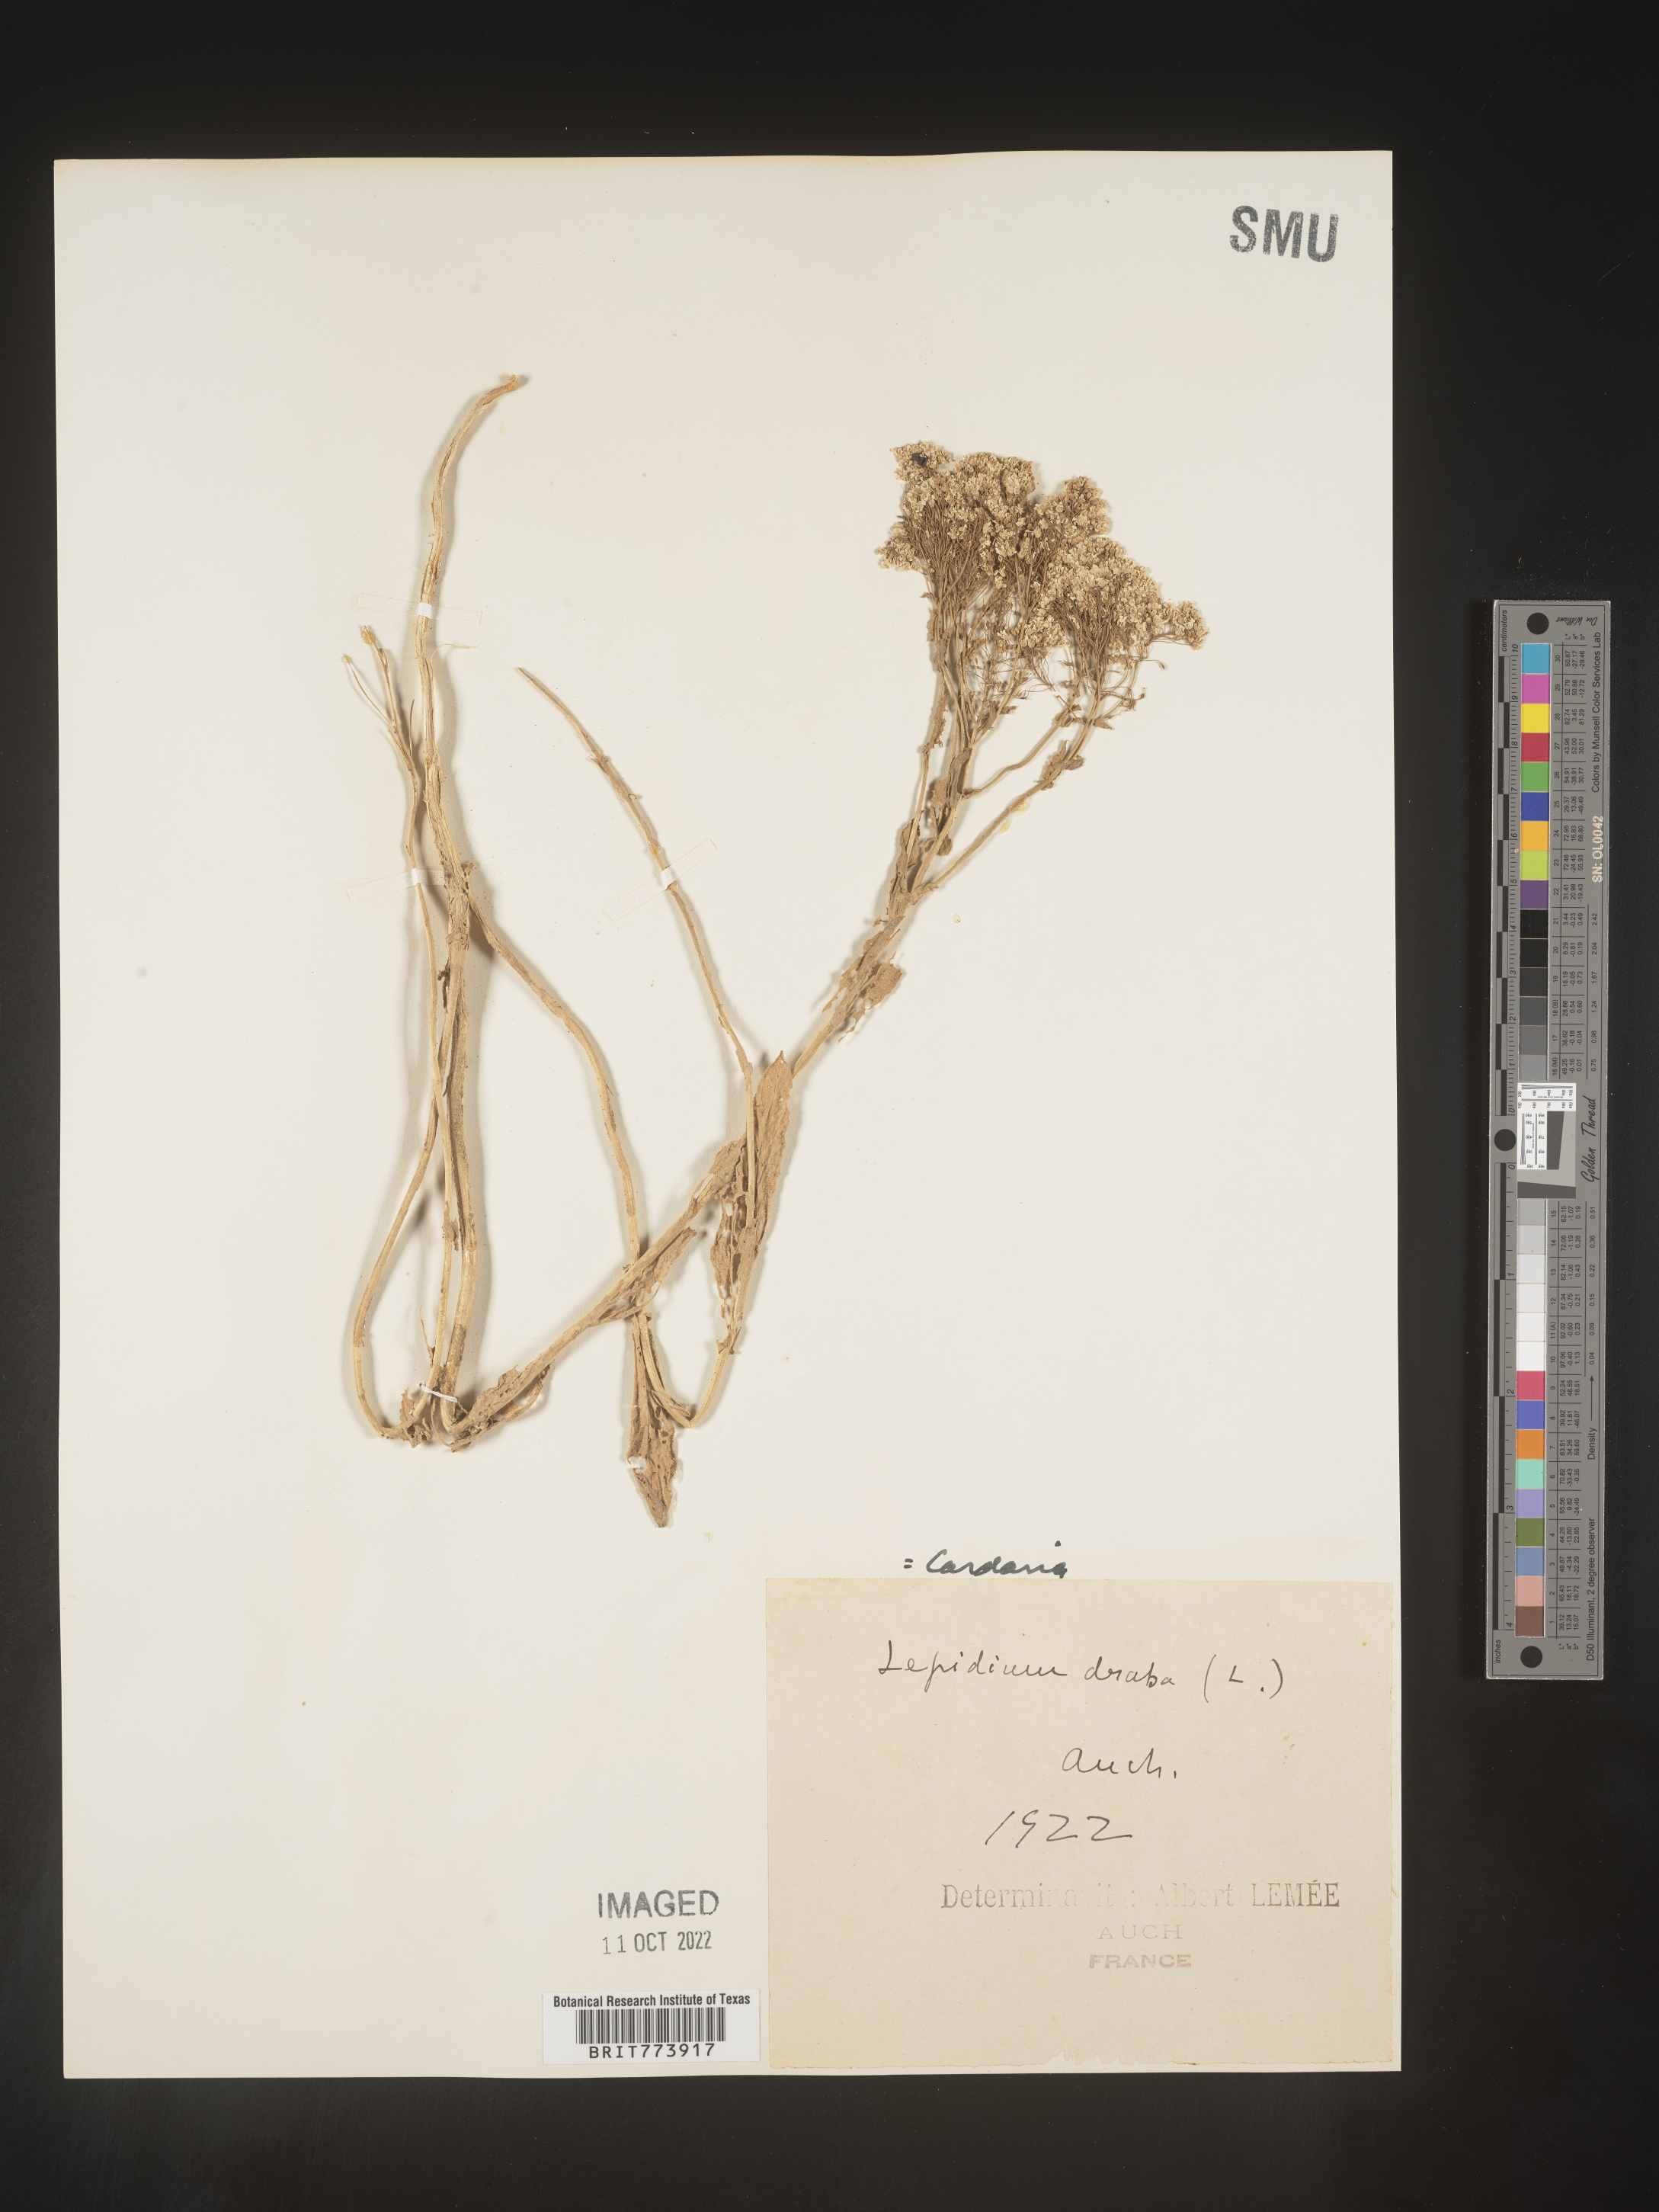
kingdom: Plantae
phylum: Tracheophyta
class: Magnoliopsida
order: Brassicales
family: Brassicaceae
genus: Lepidium
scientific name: Lepidium
